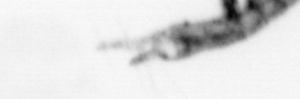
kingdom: Animalia
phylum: Arthropoda
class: Copepoda
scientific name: Copepoda
